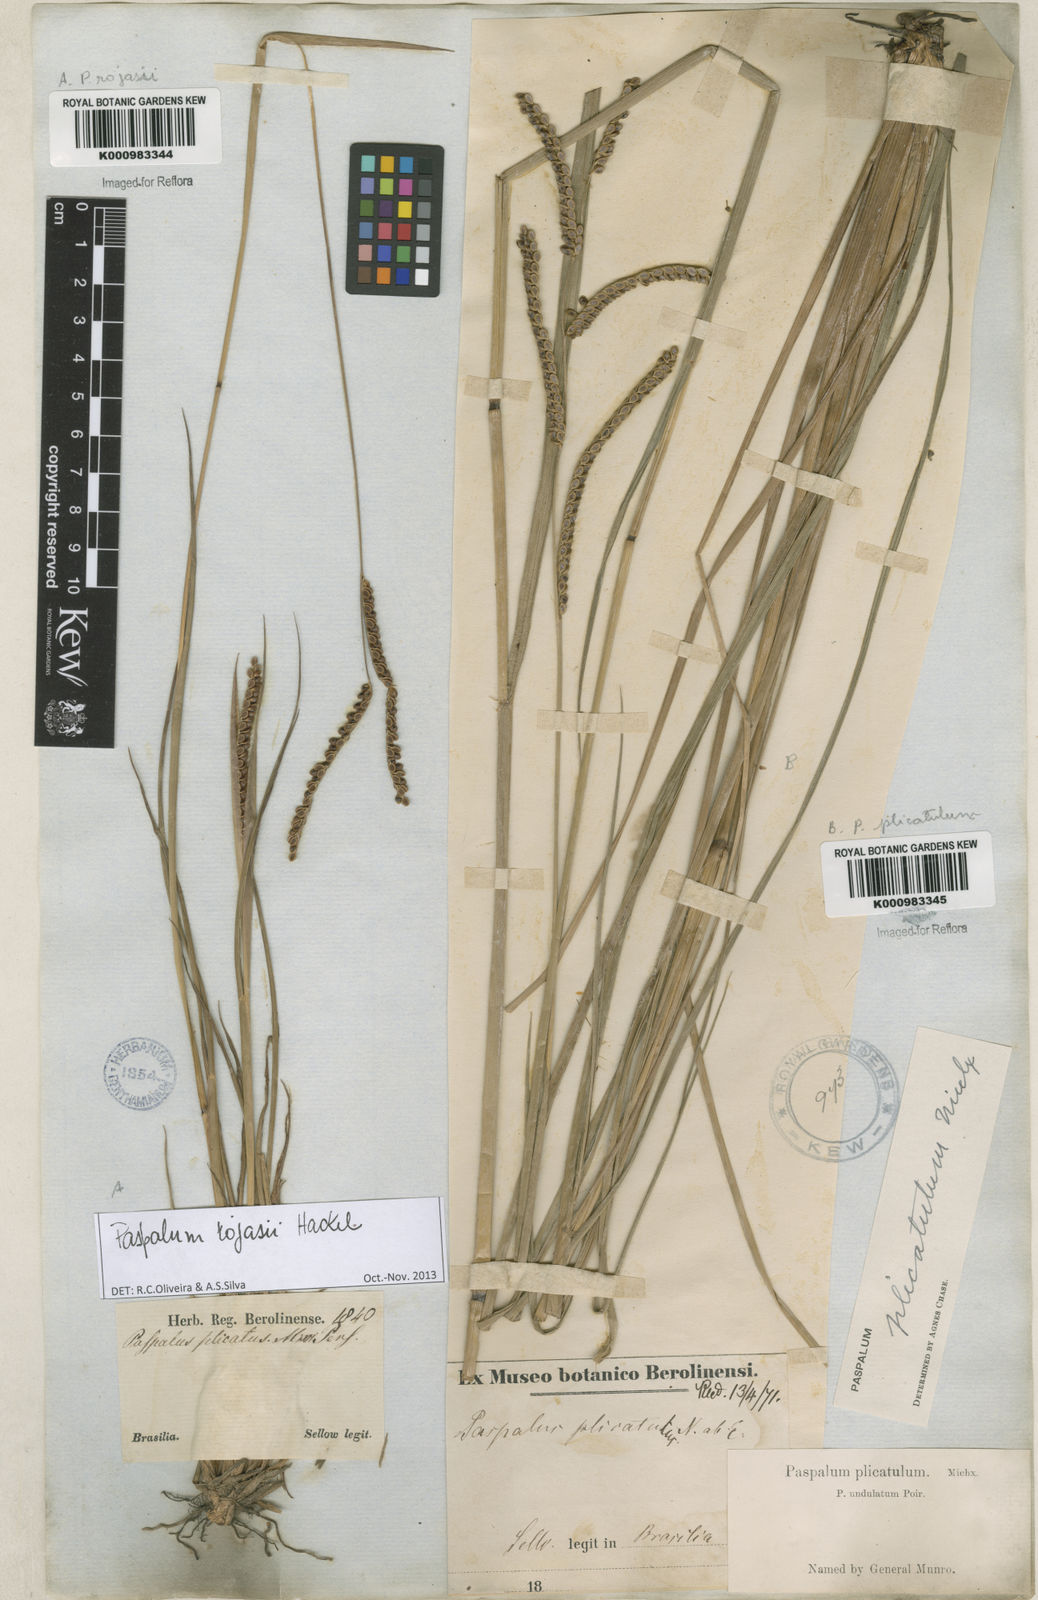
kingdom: Plantae
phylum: Tracheophyta
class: Liliopsida
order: Poales
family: Poaceae
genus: Paspalum
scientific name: Paspalum plicatulum
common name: Top paspalum
